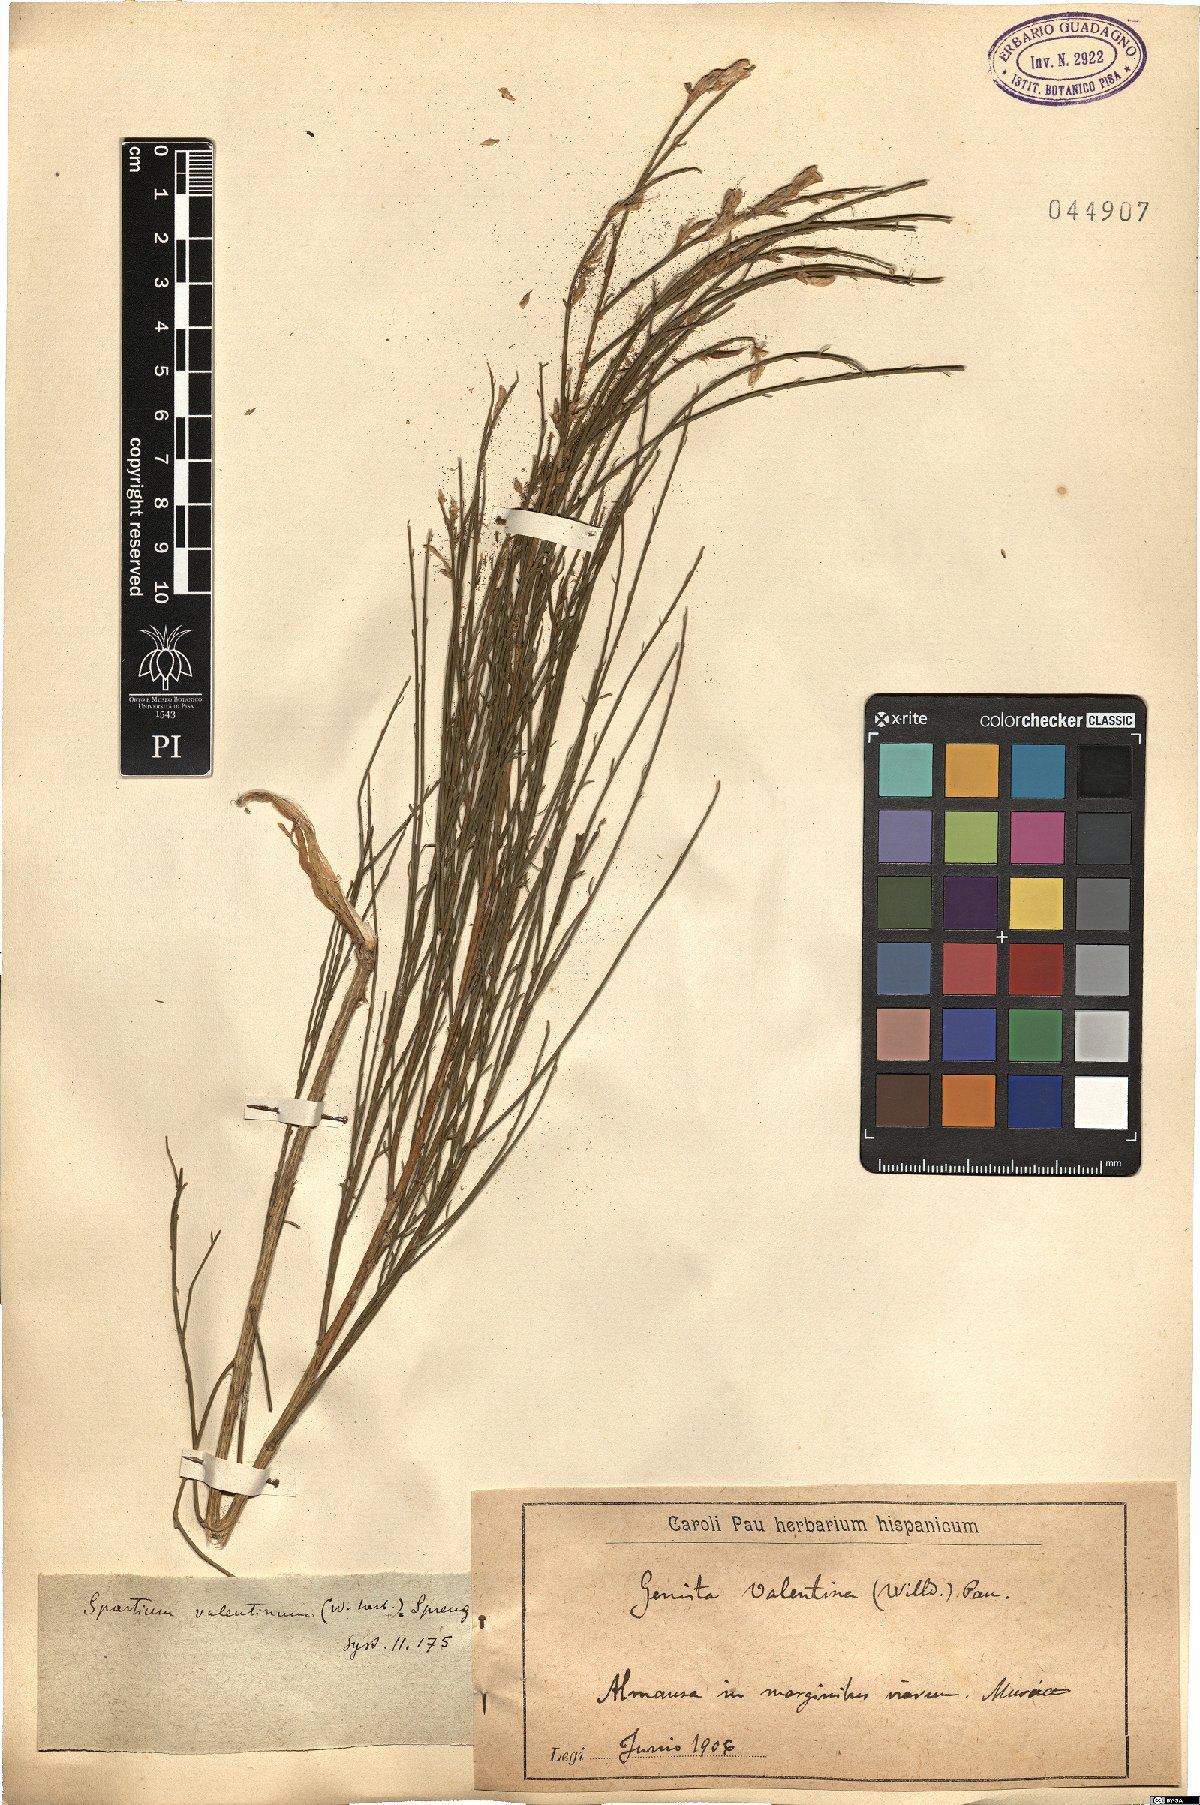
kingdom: Plantae
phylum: Tracheophyta
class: Magnoliopsida
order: Fabales
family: Fabaceae
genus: Genista
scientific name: Genista cinerea
